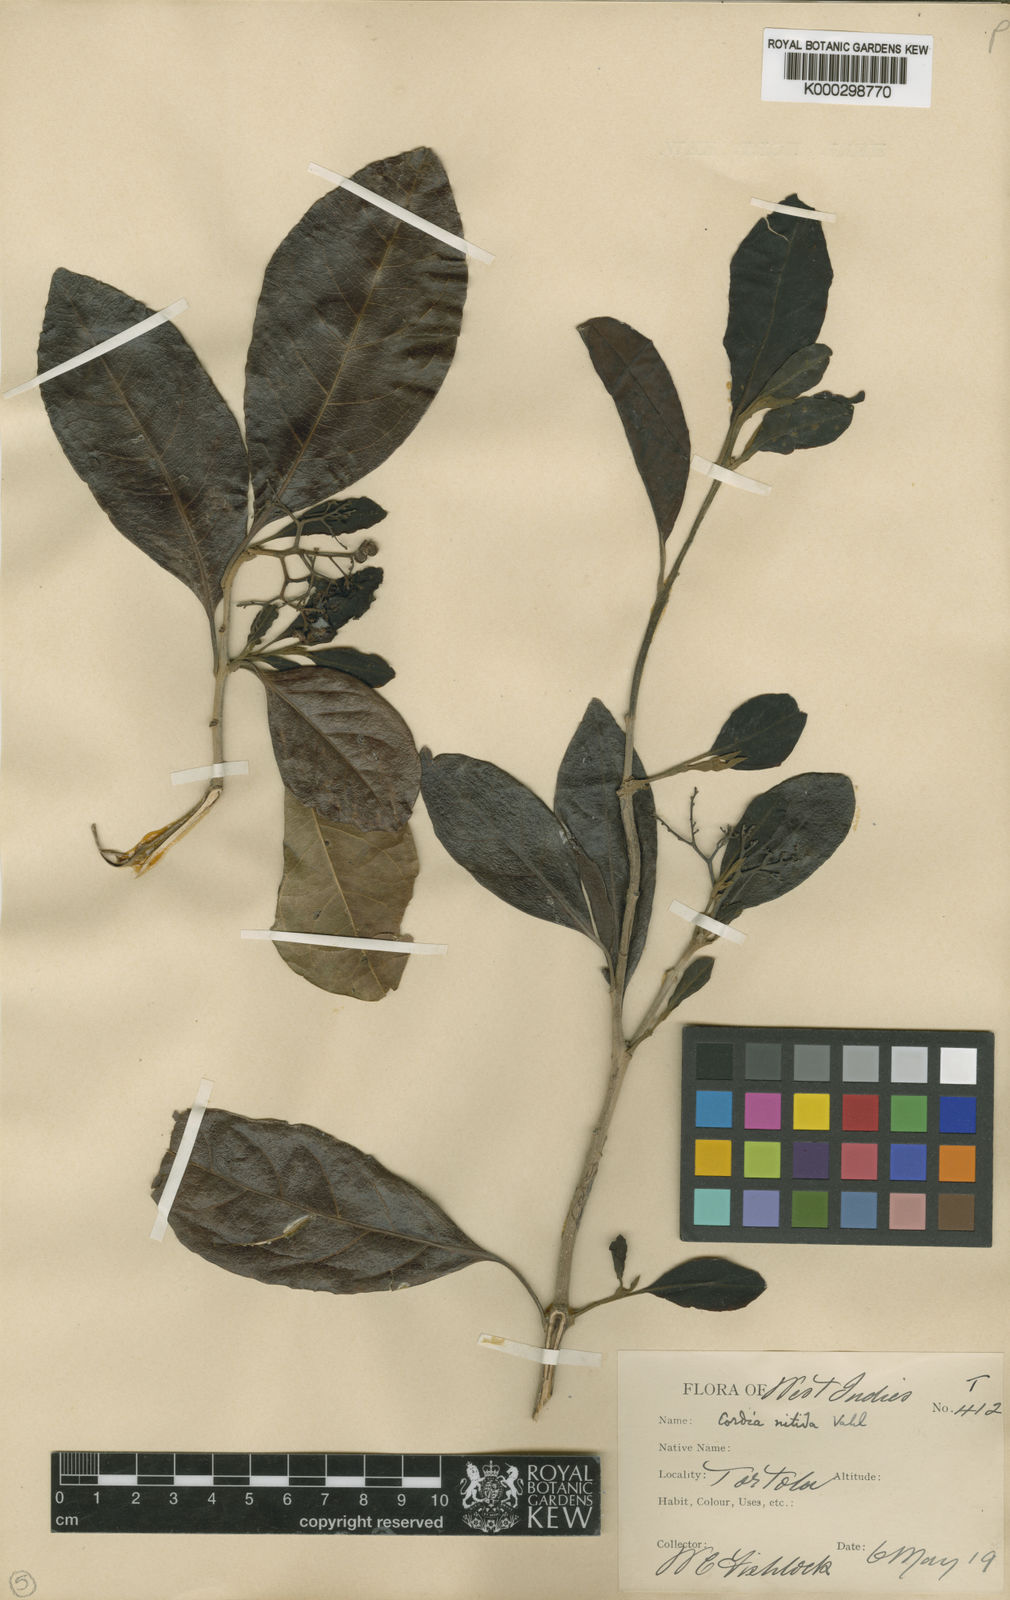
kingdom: Plantae
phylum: Tracheophyta
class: Magnoliopsida
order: Boraginales
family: Cordiaceae
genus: Cordia
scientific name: Cordia laevigata
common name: Clam cherry
